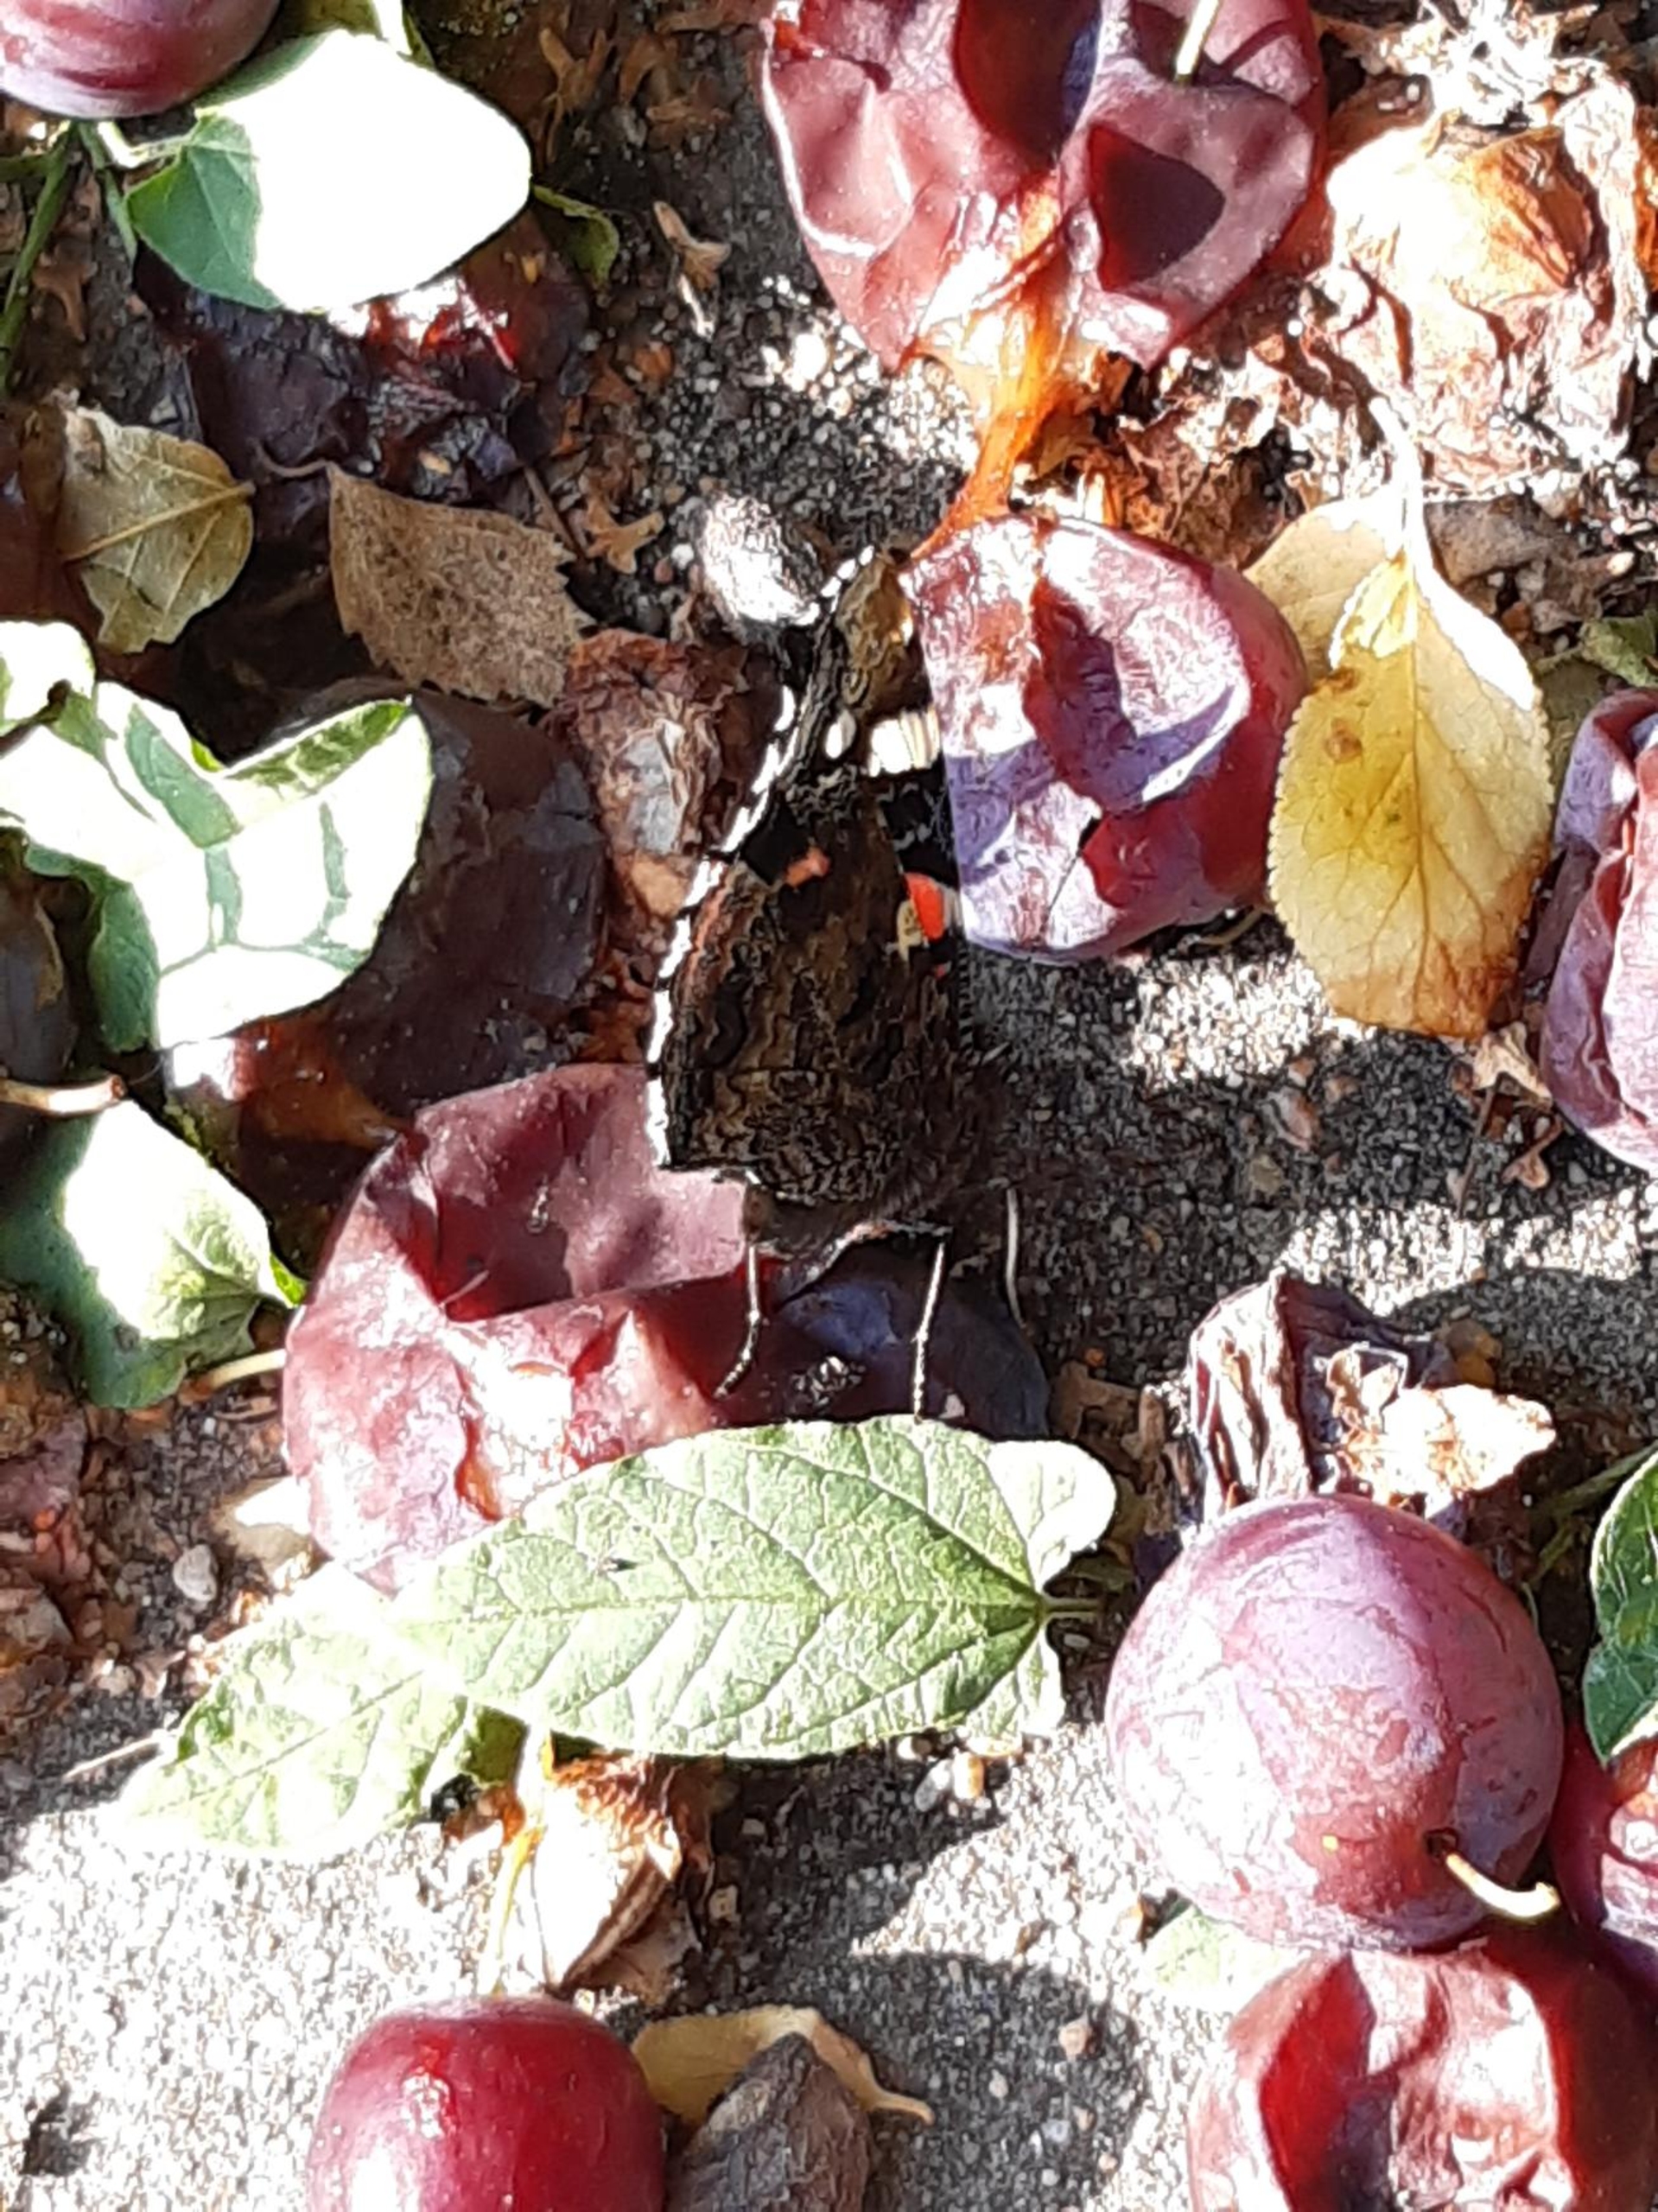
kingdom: Animalia
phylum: Arthropoda
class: Insecta
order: Lepidoptera
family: Nymphalidae
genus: Vanessa
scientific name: Vanessa atalanta
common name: Admiral
